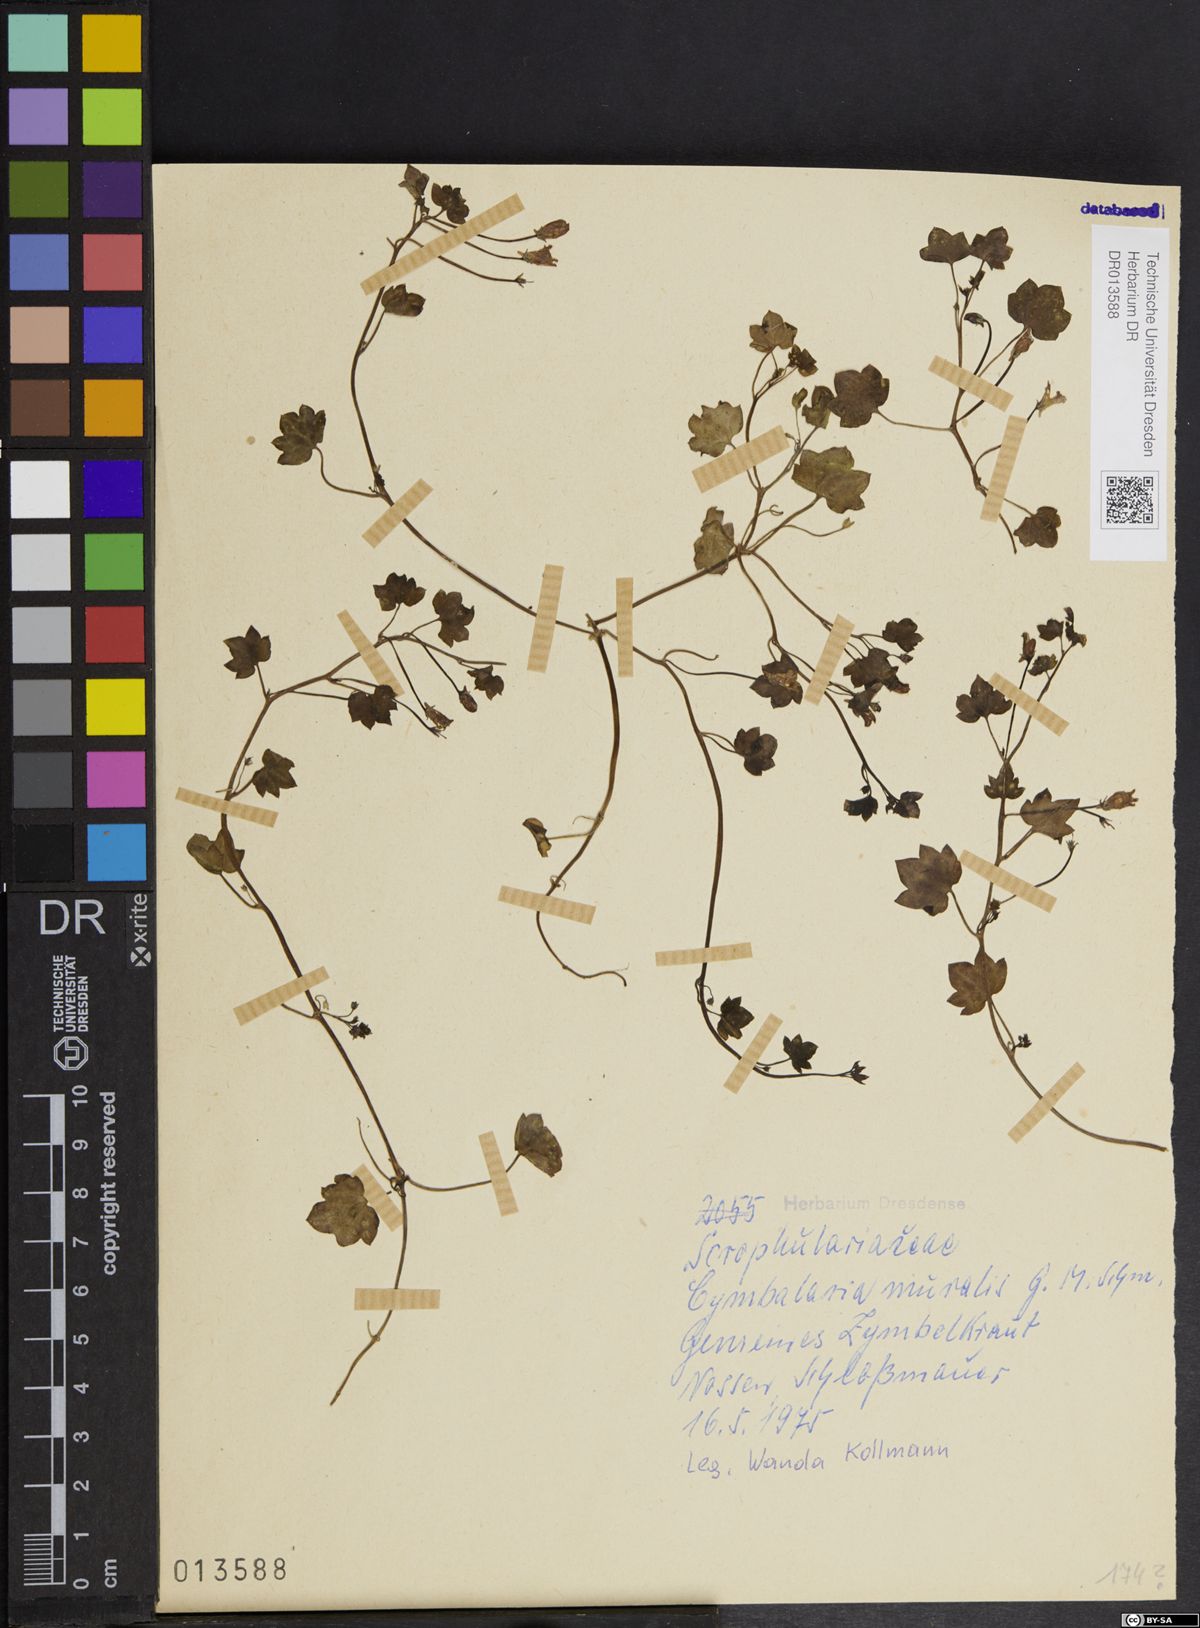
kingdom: Plantae
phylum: Tracheophyta
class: Magnoliopsida
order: Lamiales
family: Plantaginaceae
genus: Cymbalaria
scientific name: Cymbalaria muralis
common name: Ivy-leaved toadflax
